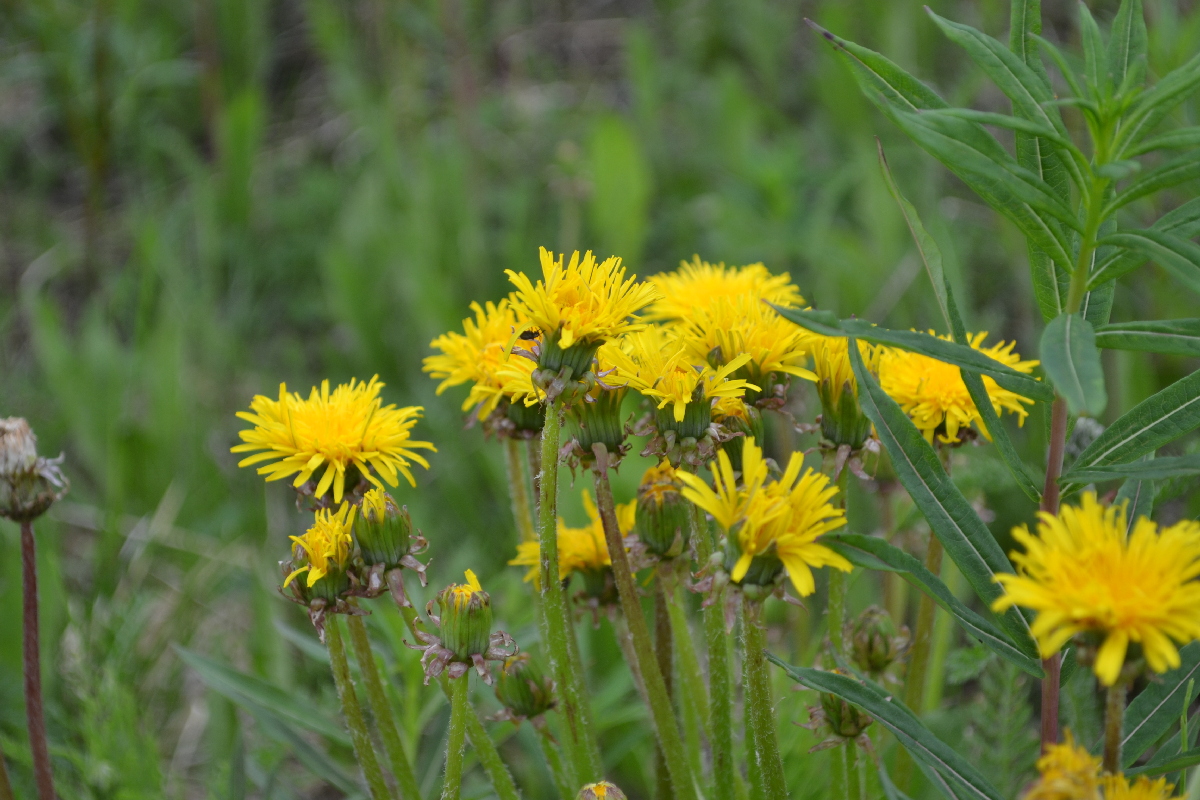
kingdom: Plantae
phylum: Tracheophyta
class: Magnoliopsida
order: Asterales
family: Asteraceae
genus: Taraxacum
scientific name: Taraxacum ceratophorum
